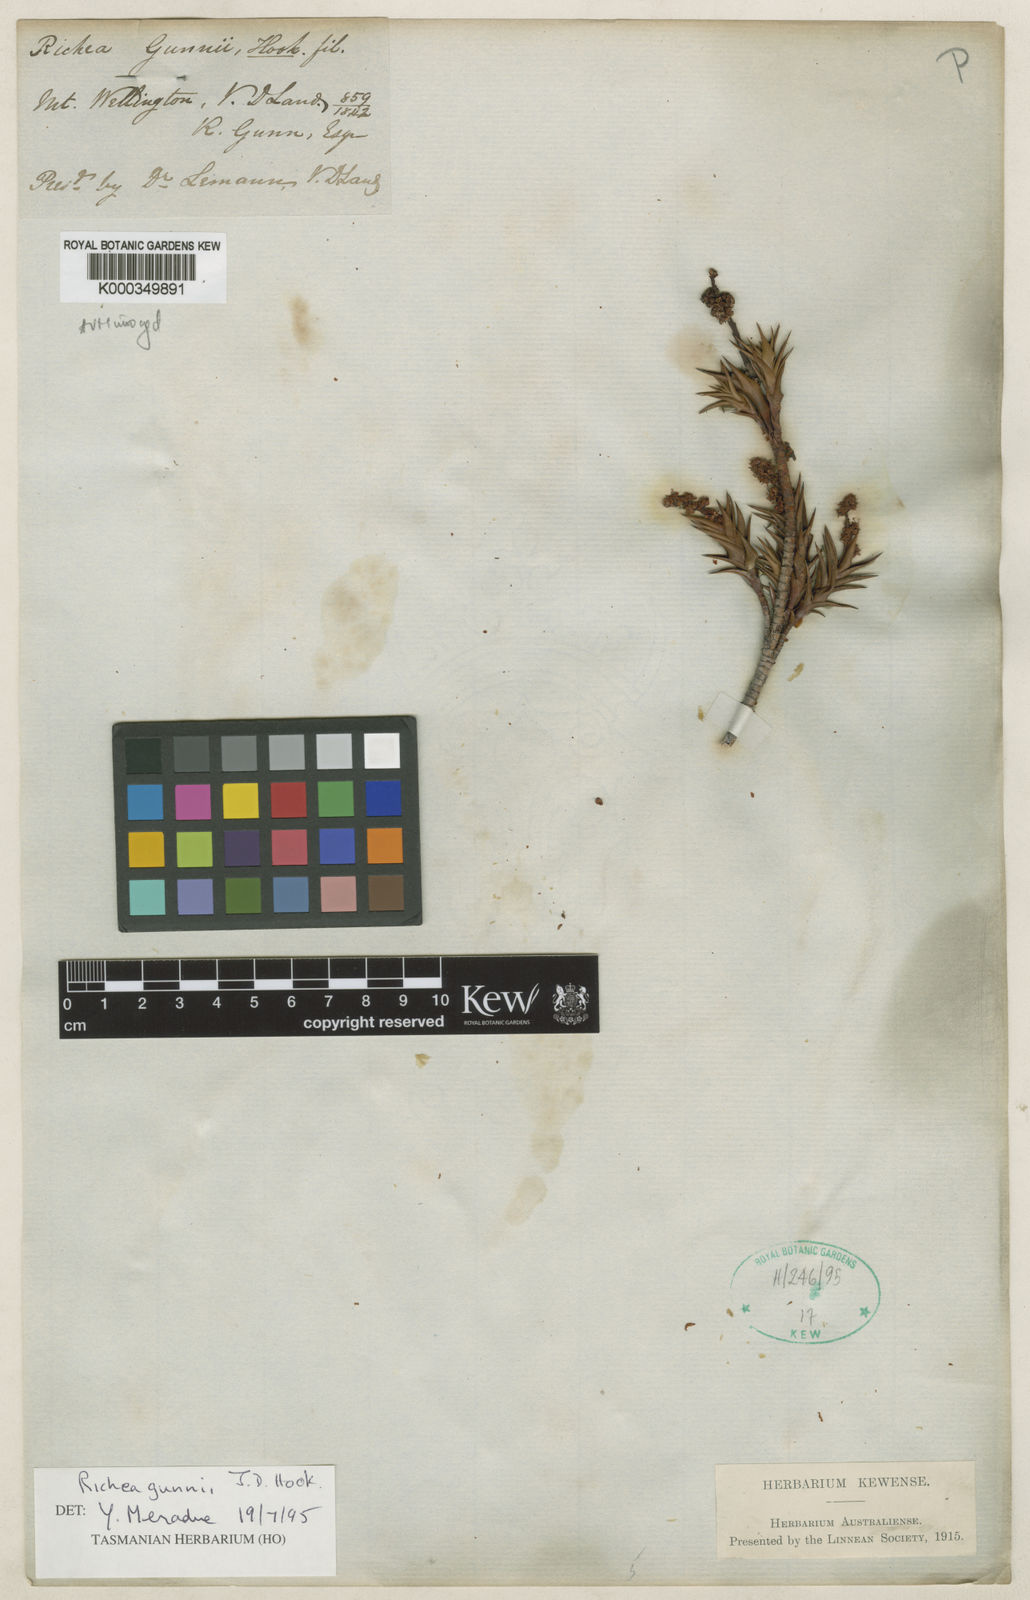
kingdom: Plantae
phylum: Tracheophyta
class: Magnoliopsida
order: Ericales
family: Ericaceae
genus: Dracophyllum
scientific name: Dracophyllum gunnii
